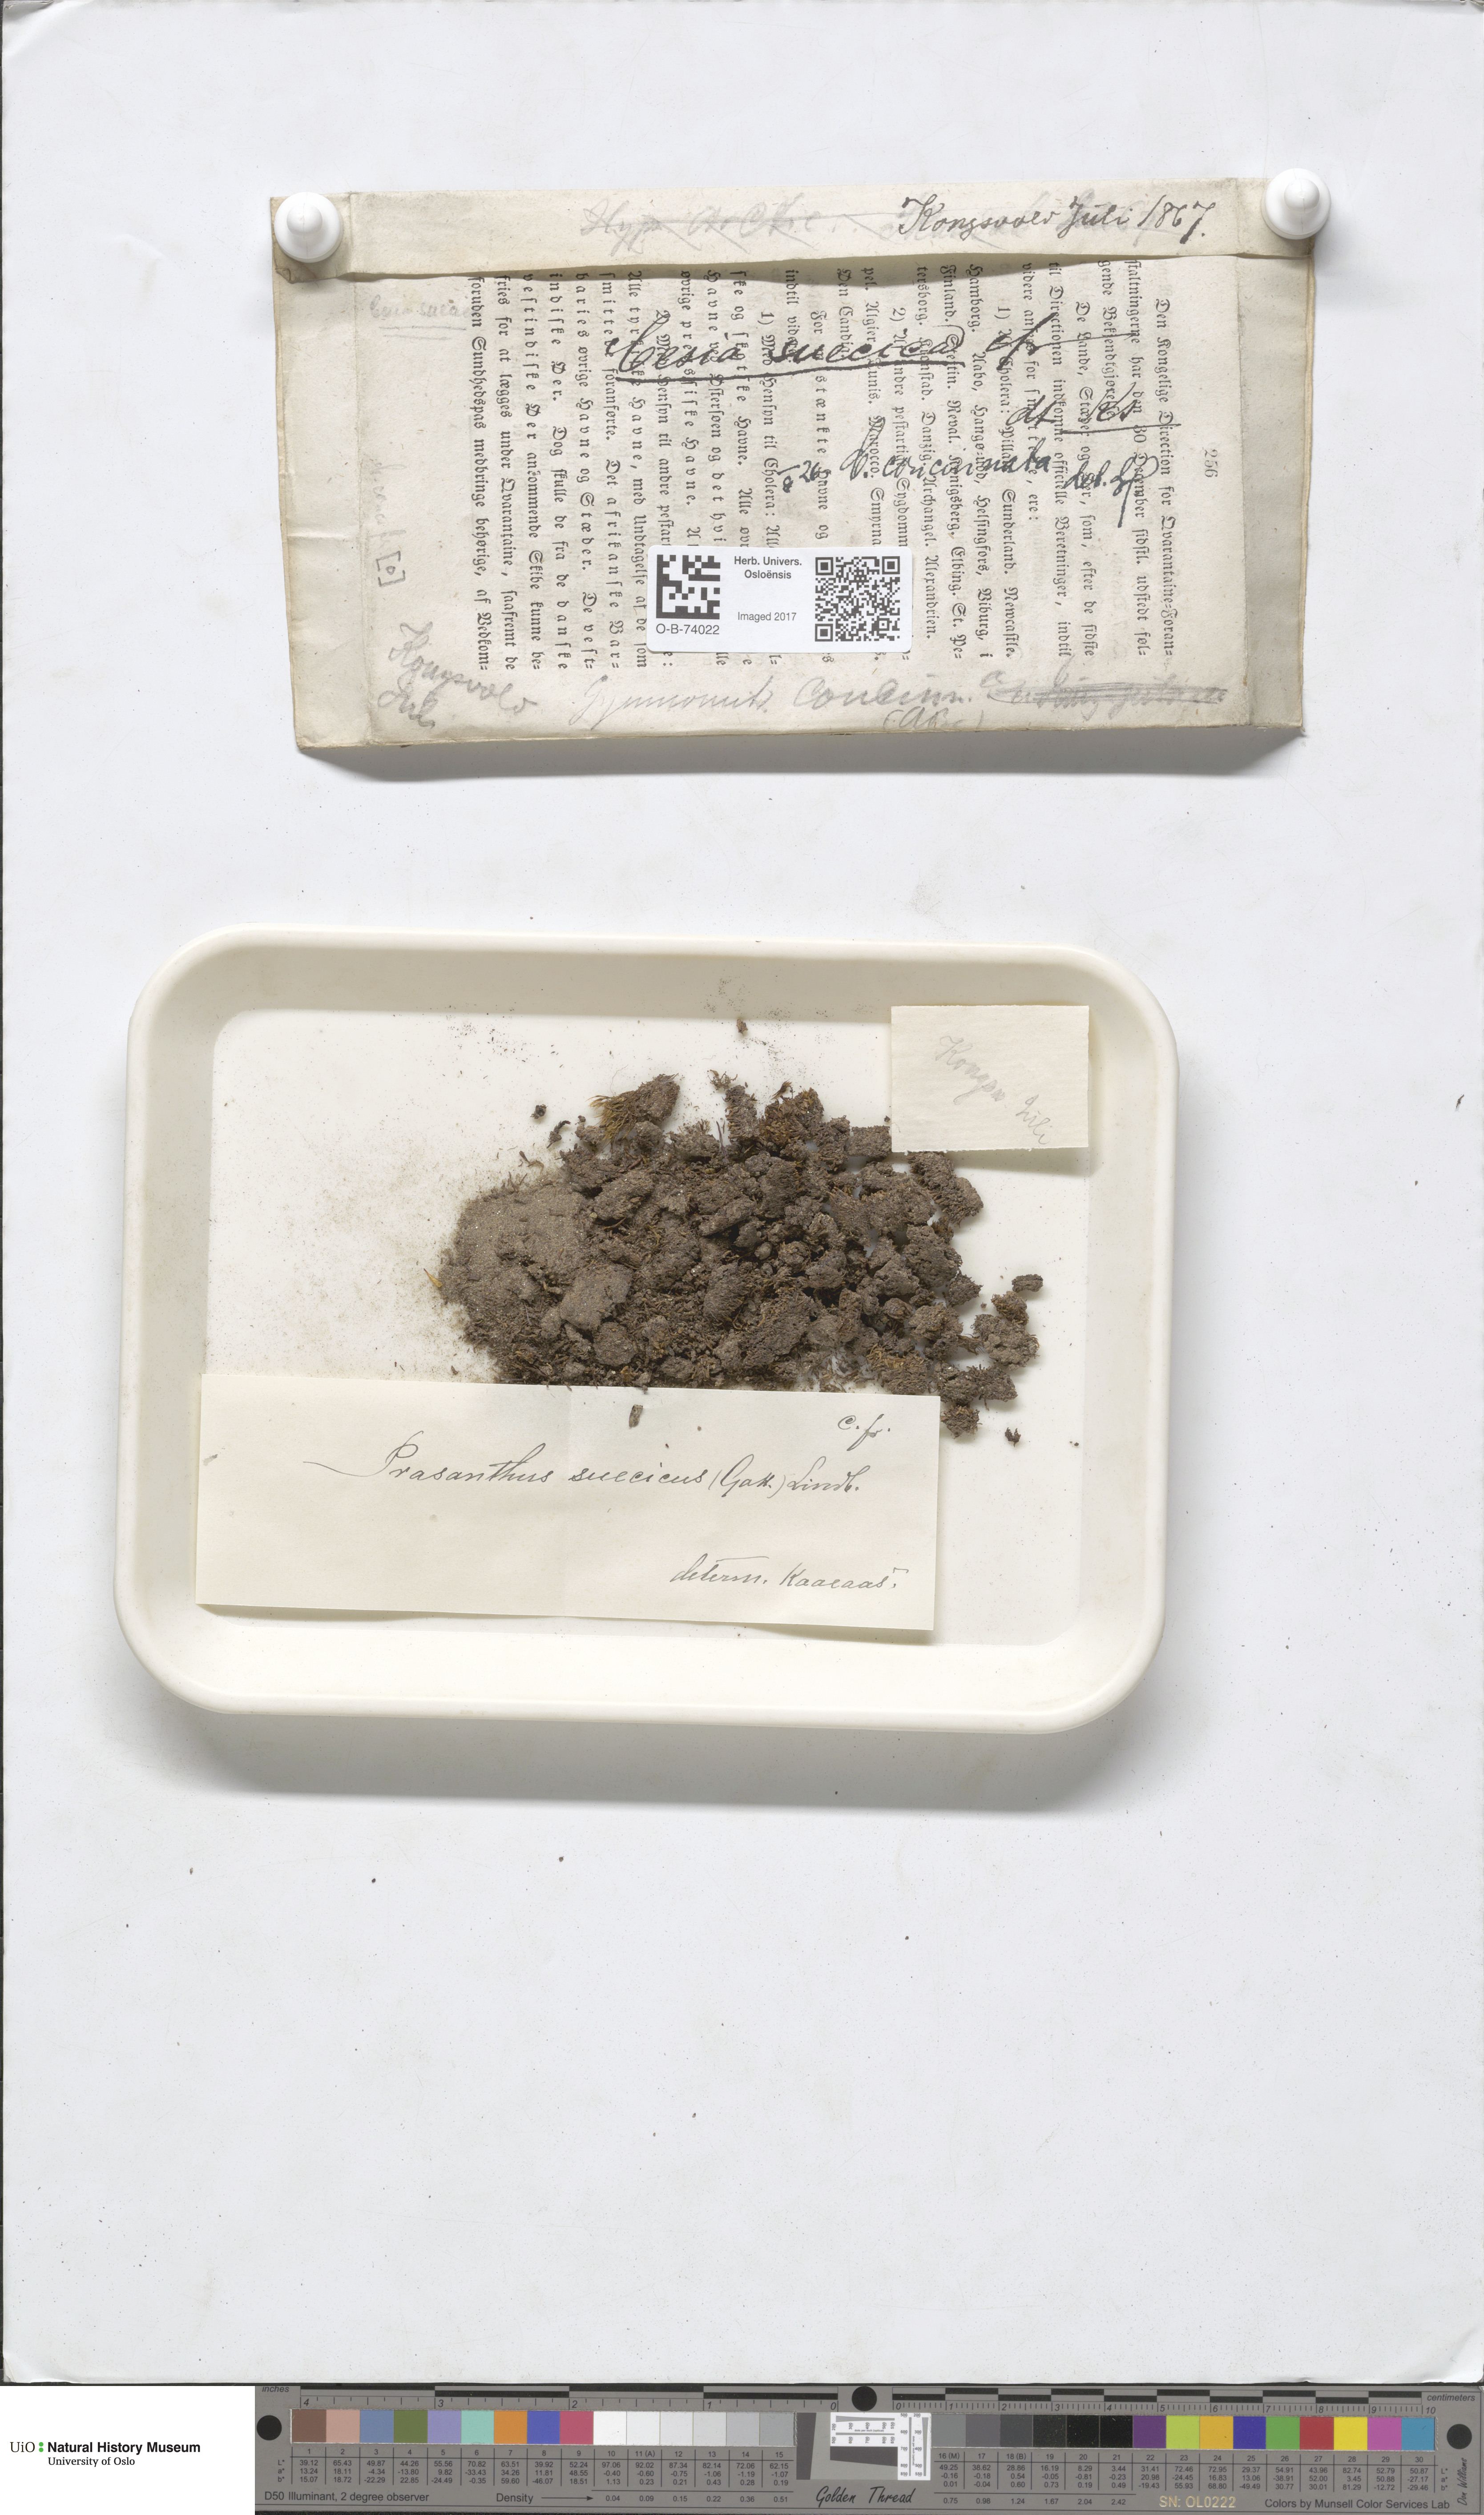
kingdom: Plantae
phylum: Marchantiophyta
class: Jungermanniopsida
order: Jungermanniales
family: Gymnomitriaceae
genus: Marsupella
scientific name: Marsupella apiculata
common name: Pointed frostwort
